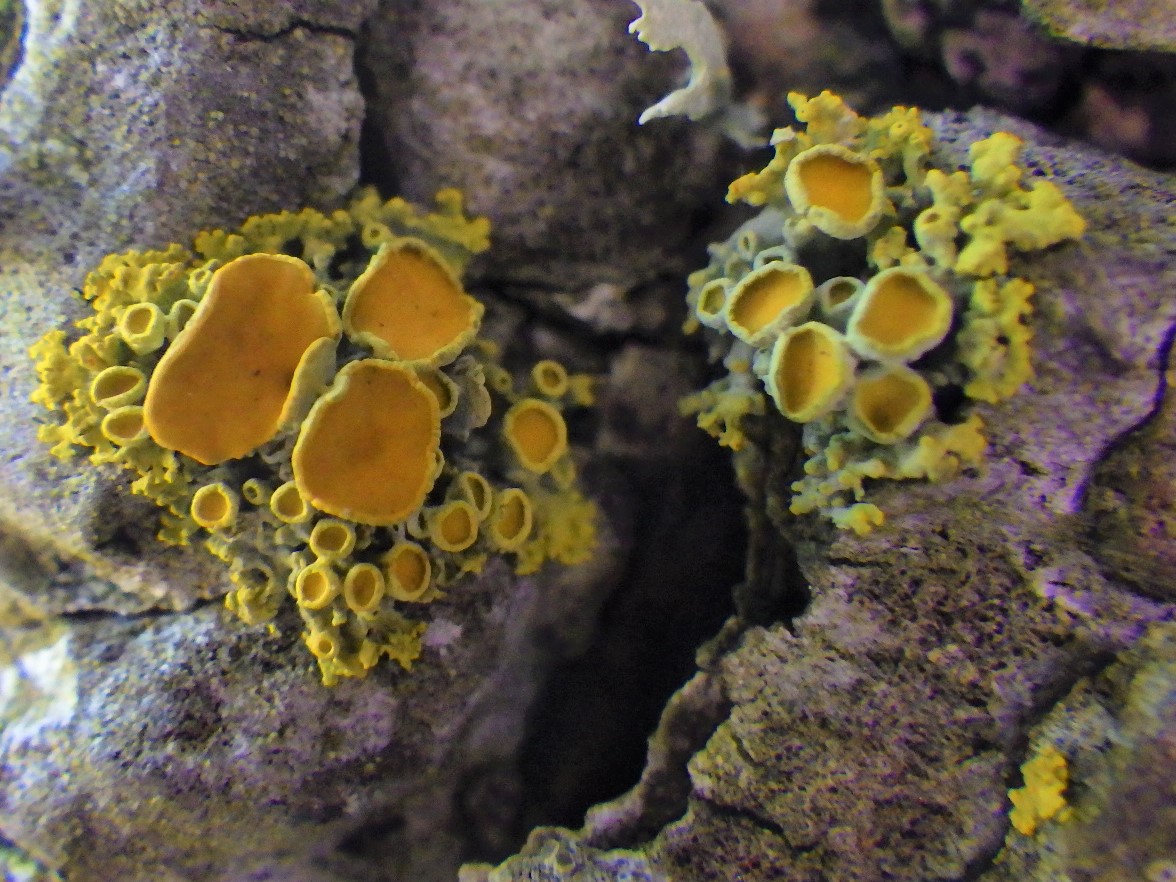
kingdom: Fungi
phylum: Ascomycota
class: Lecanoromycetes
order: Teloschistales
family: Teloschistaceae
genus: Polycauliona
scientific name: Polycauliona polycarpa
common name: mangefrugtet orangelav
